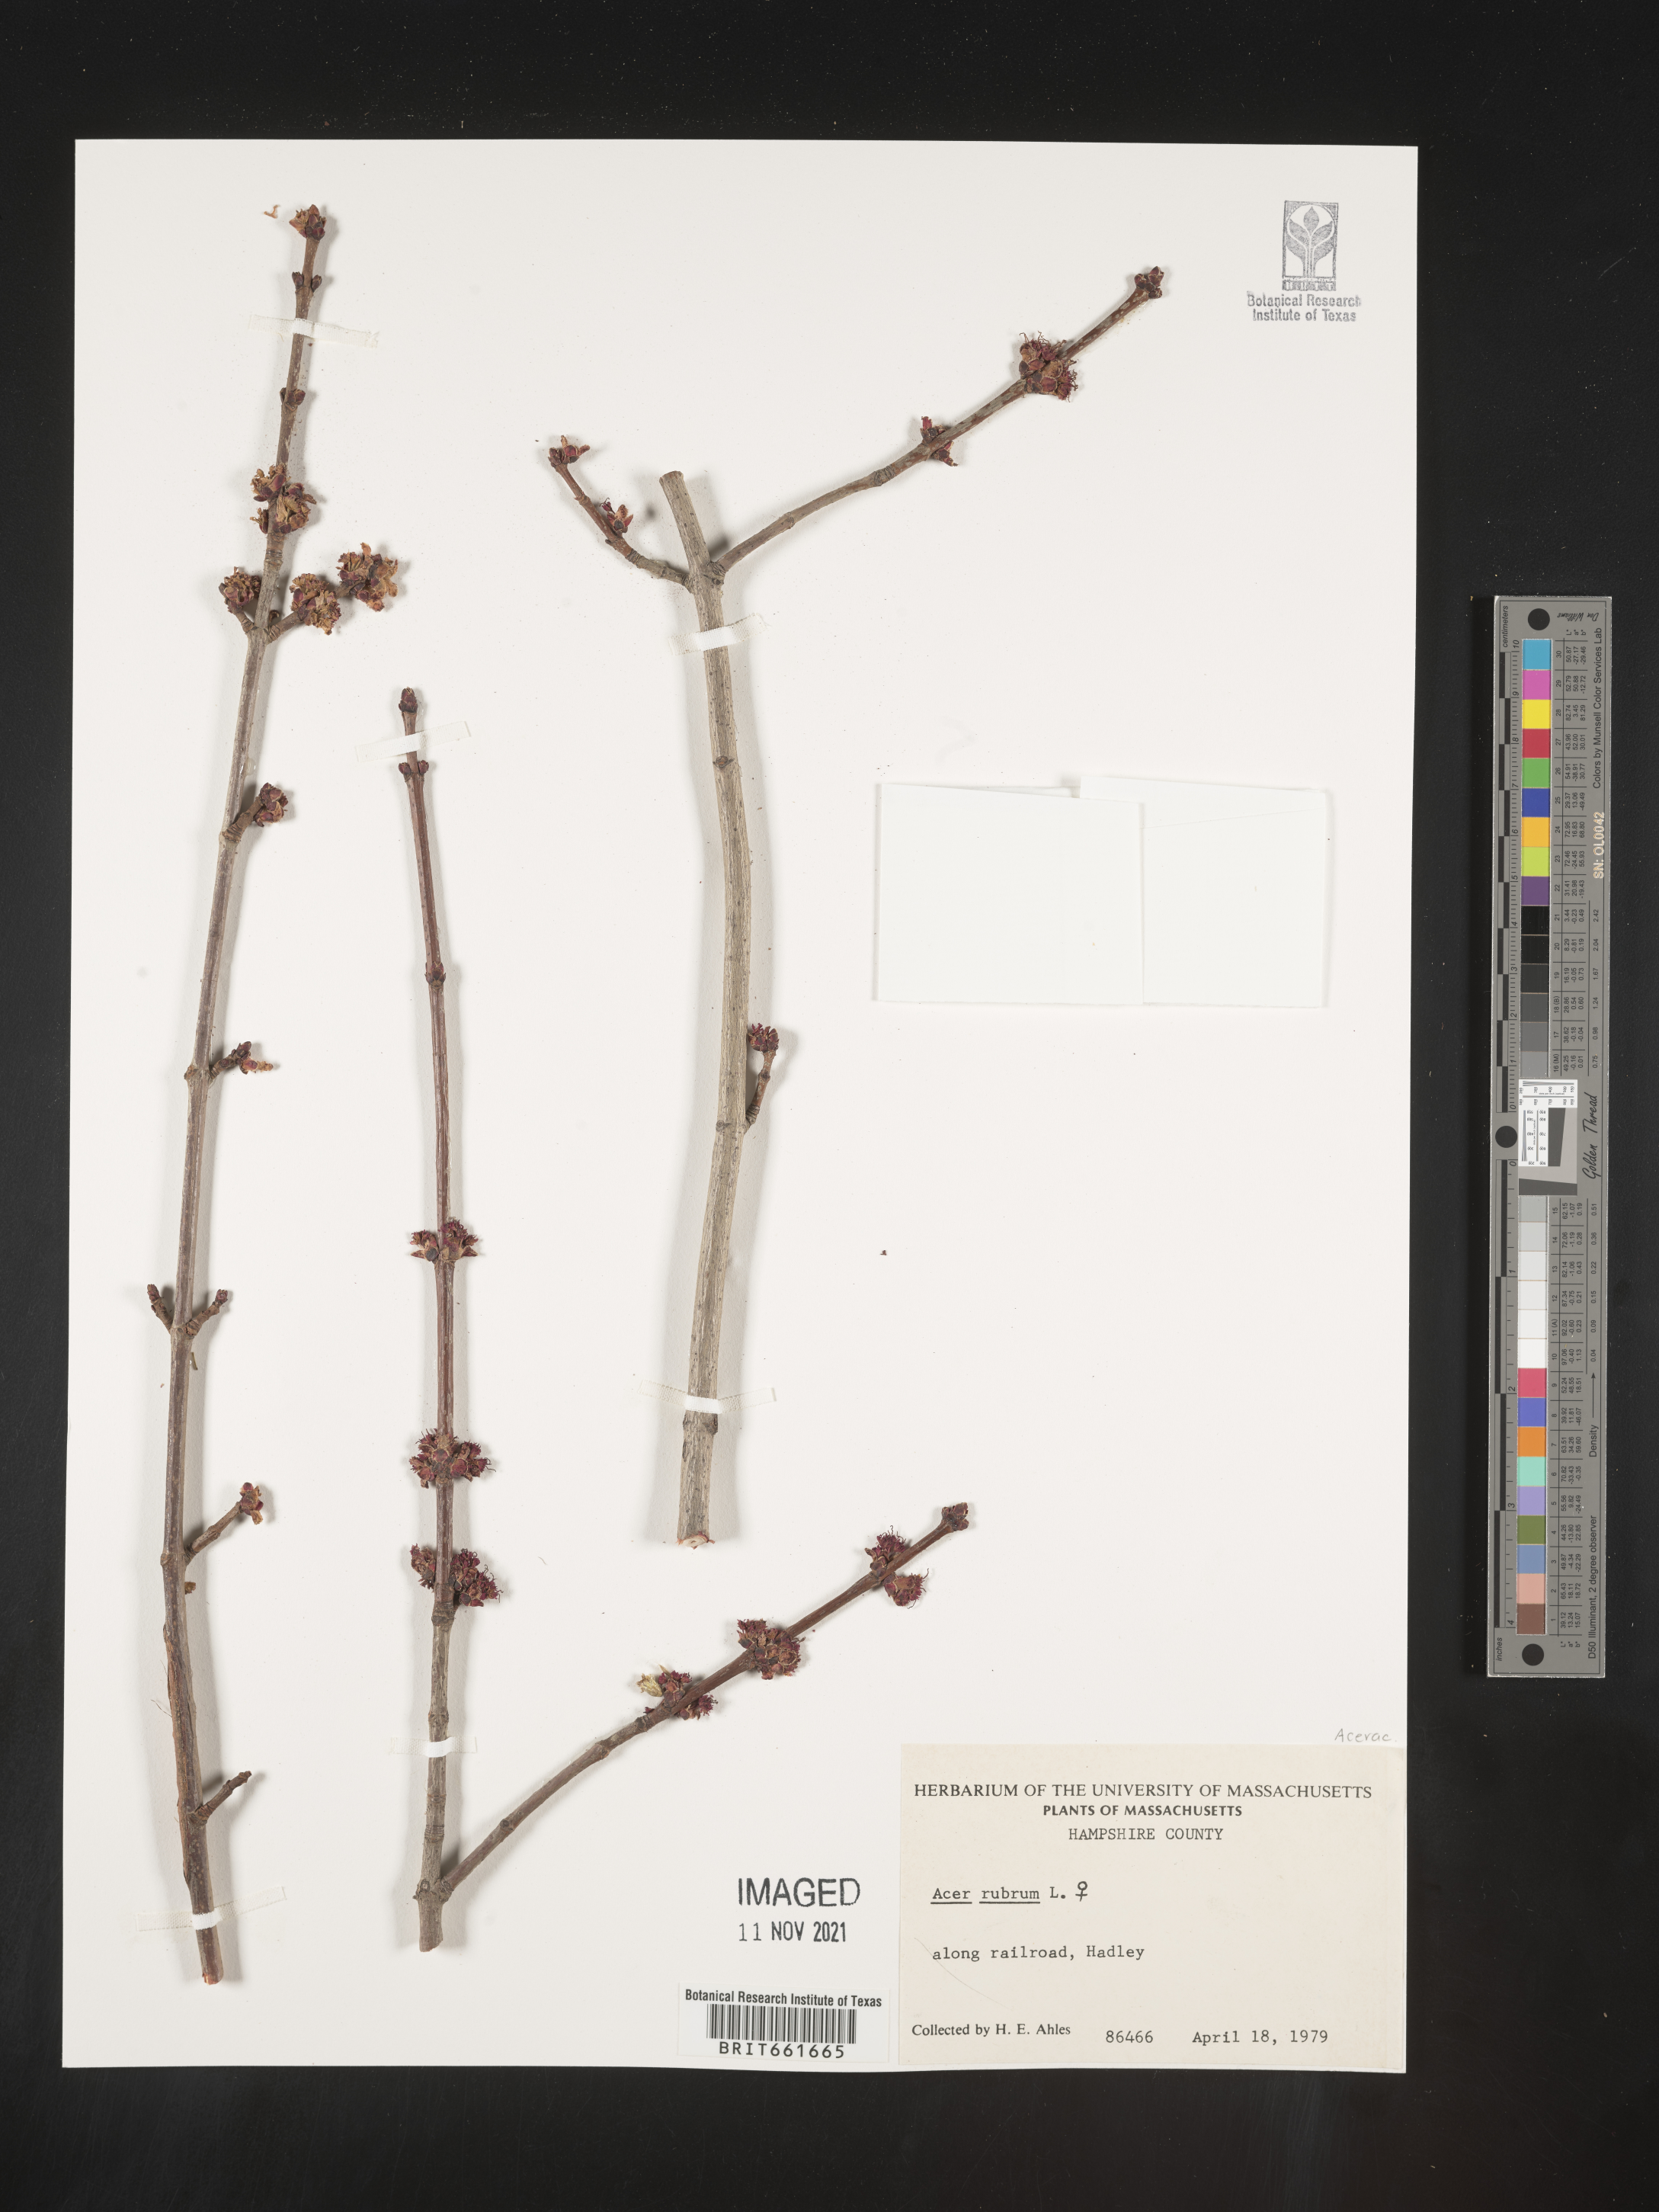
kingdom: Plantae
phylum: Tracheophyta
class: Magnoliopsida
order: Sapindales
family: Sapindaceae
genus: Acer
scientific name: Acer rubrum
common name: Red maple
